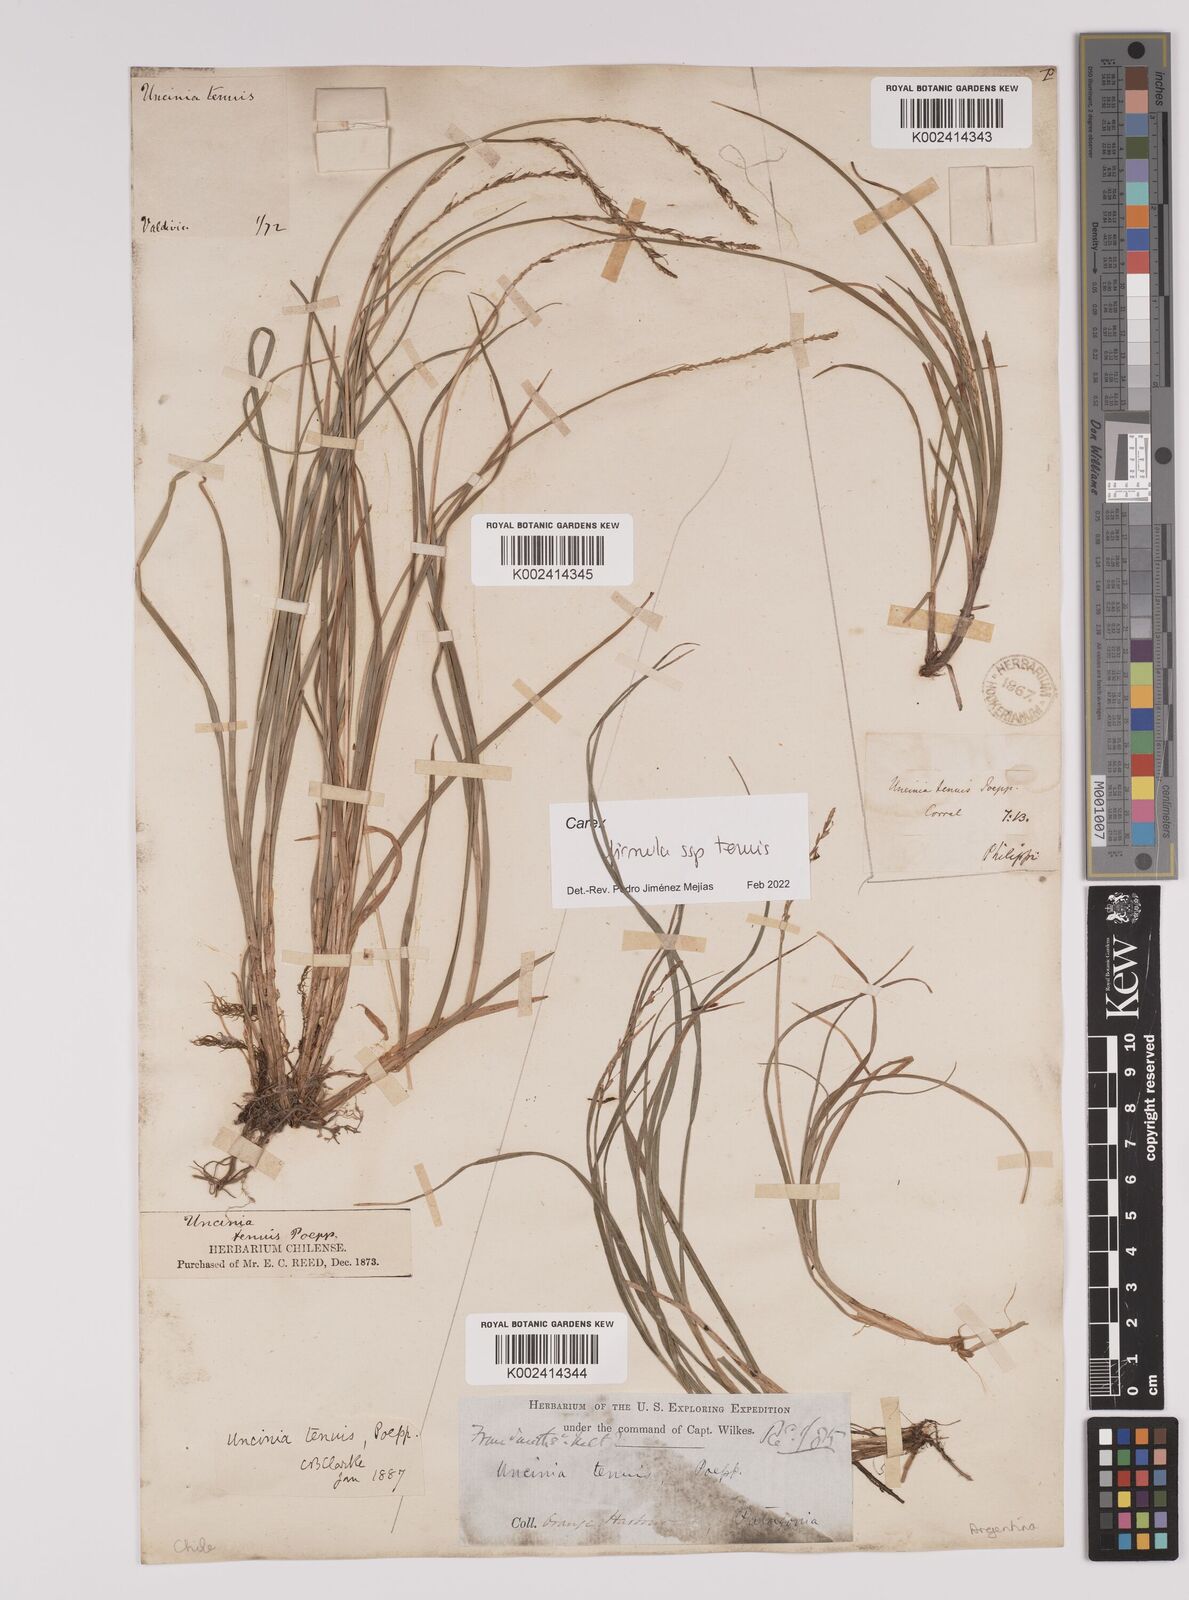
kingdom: Plantae
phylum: Tracheophyta
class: Liliopsida
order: Poales
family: Cyperaceae
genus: Carex
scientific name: Carex firmula
